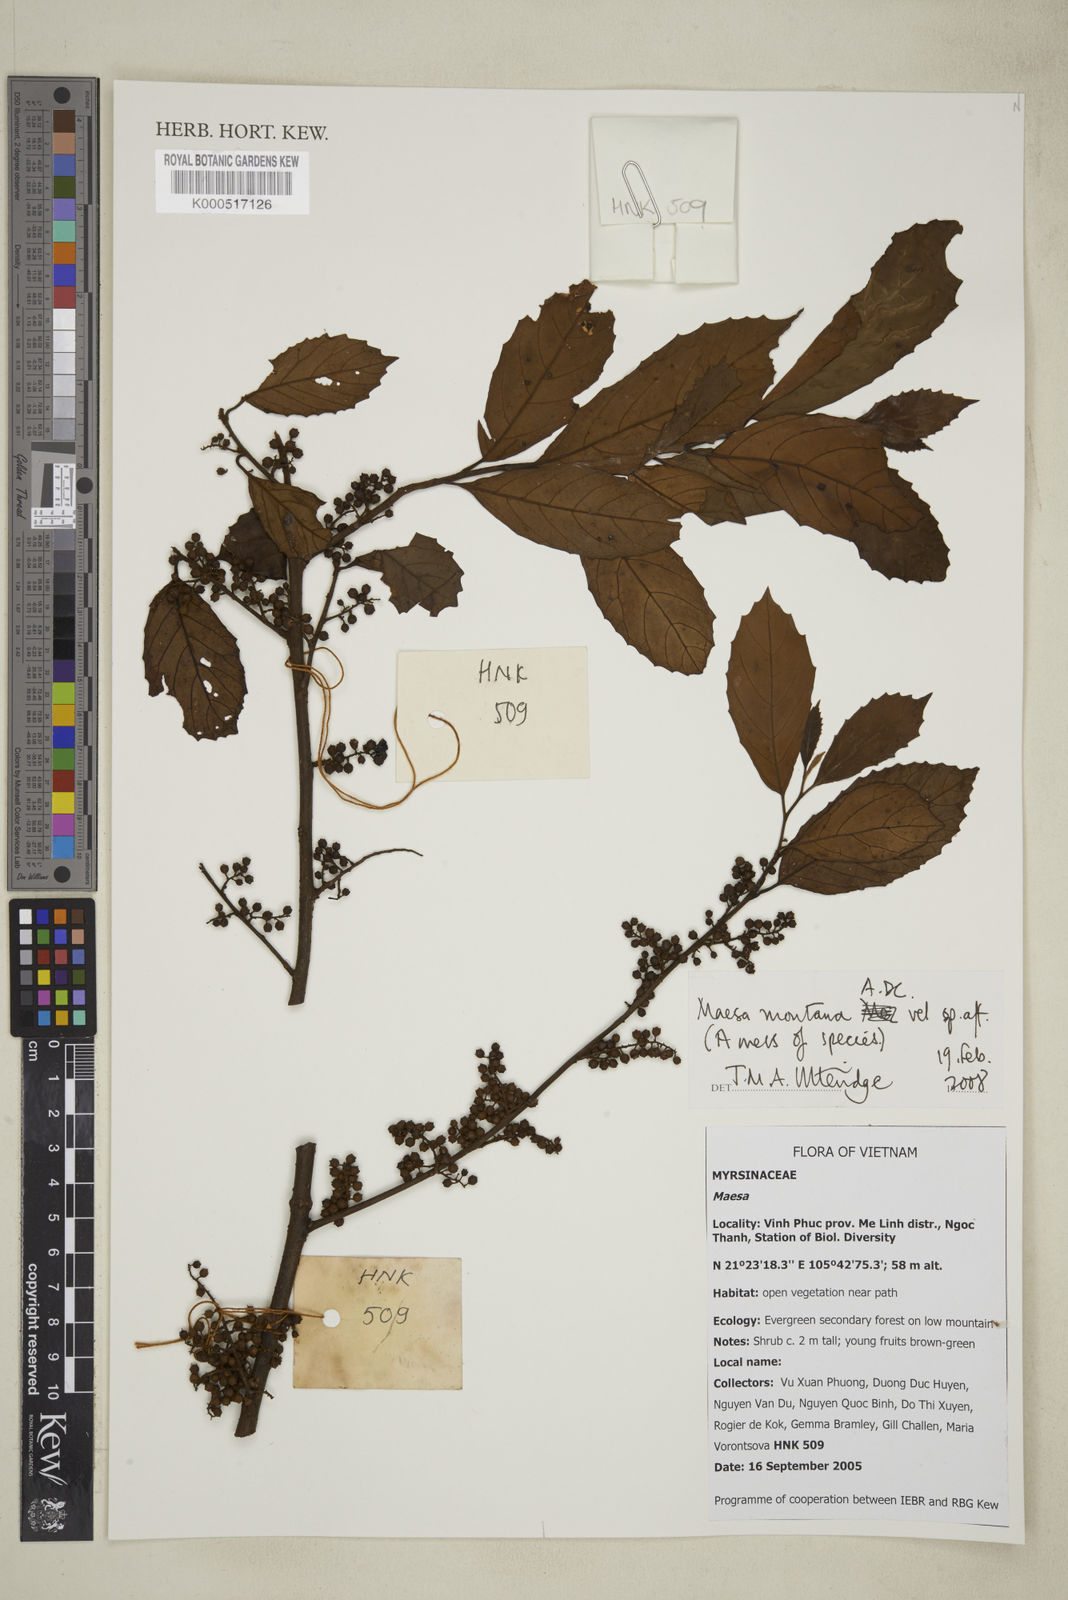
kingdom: Plantae
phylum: Tracheophyta
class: Magnoliopsida
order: Ericales
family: Primulaceae
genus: Maesa
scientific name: Maesa montana
